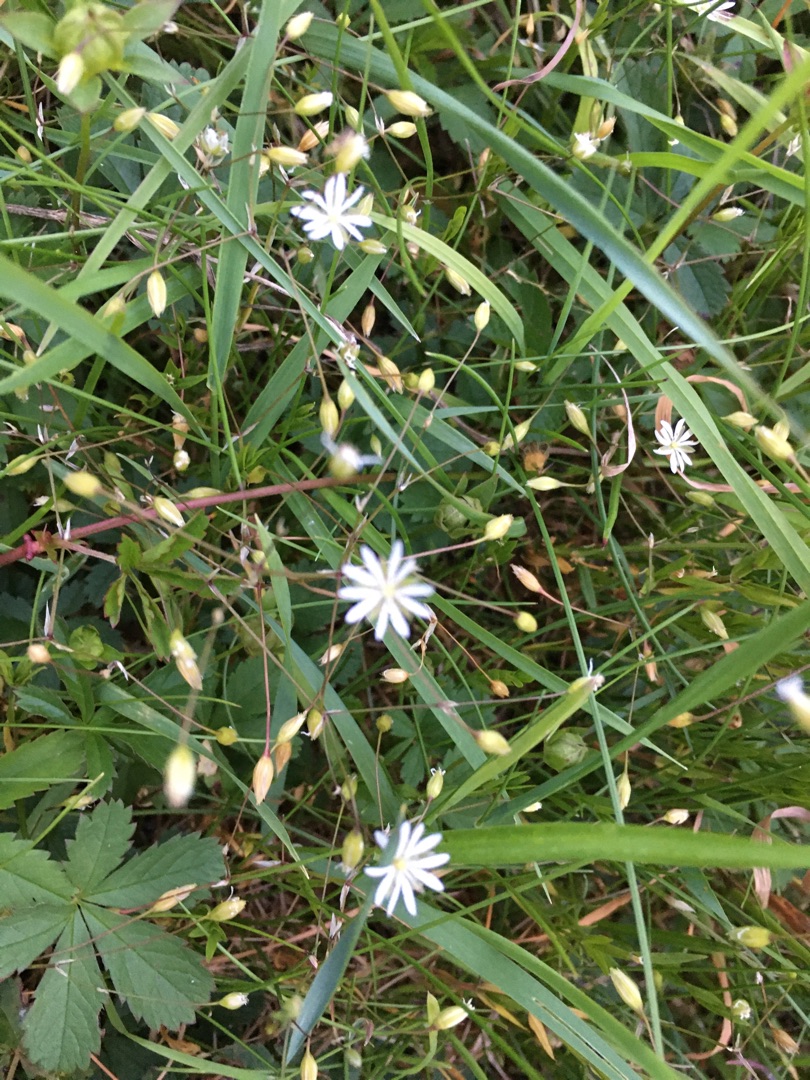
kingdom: Plantae
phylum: Tracheophyta
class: Magnoliopsida
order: Caryophyllales
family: Caryophyllaceae
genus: Stellaria
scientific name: Stellaria graminea
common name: Græsbladet fladstjerne
